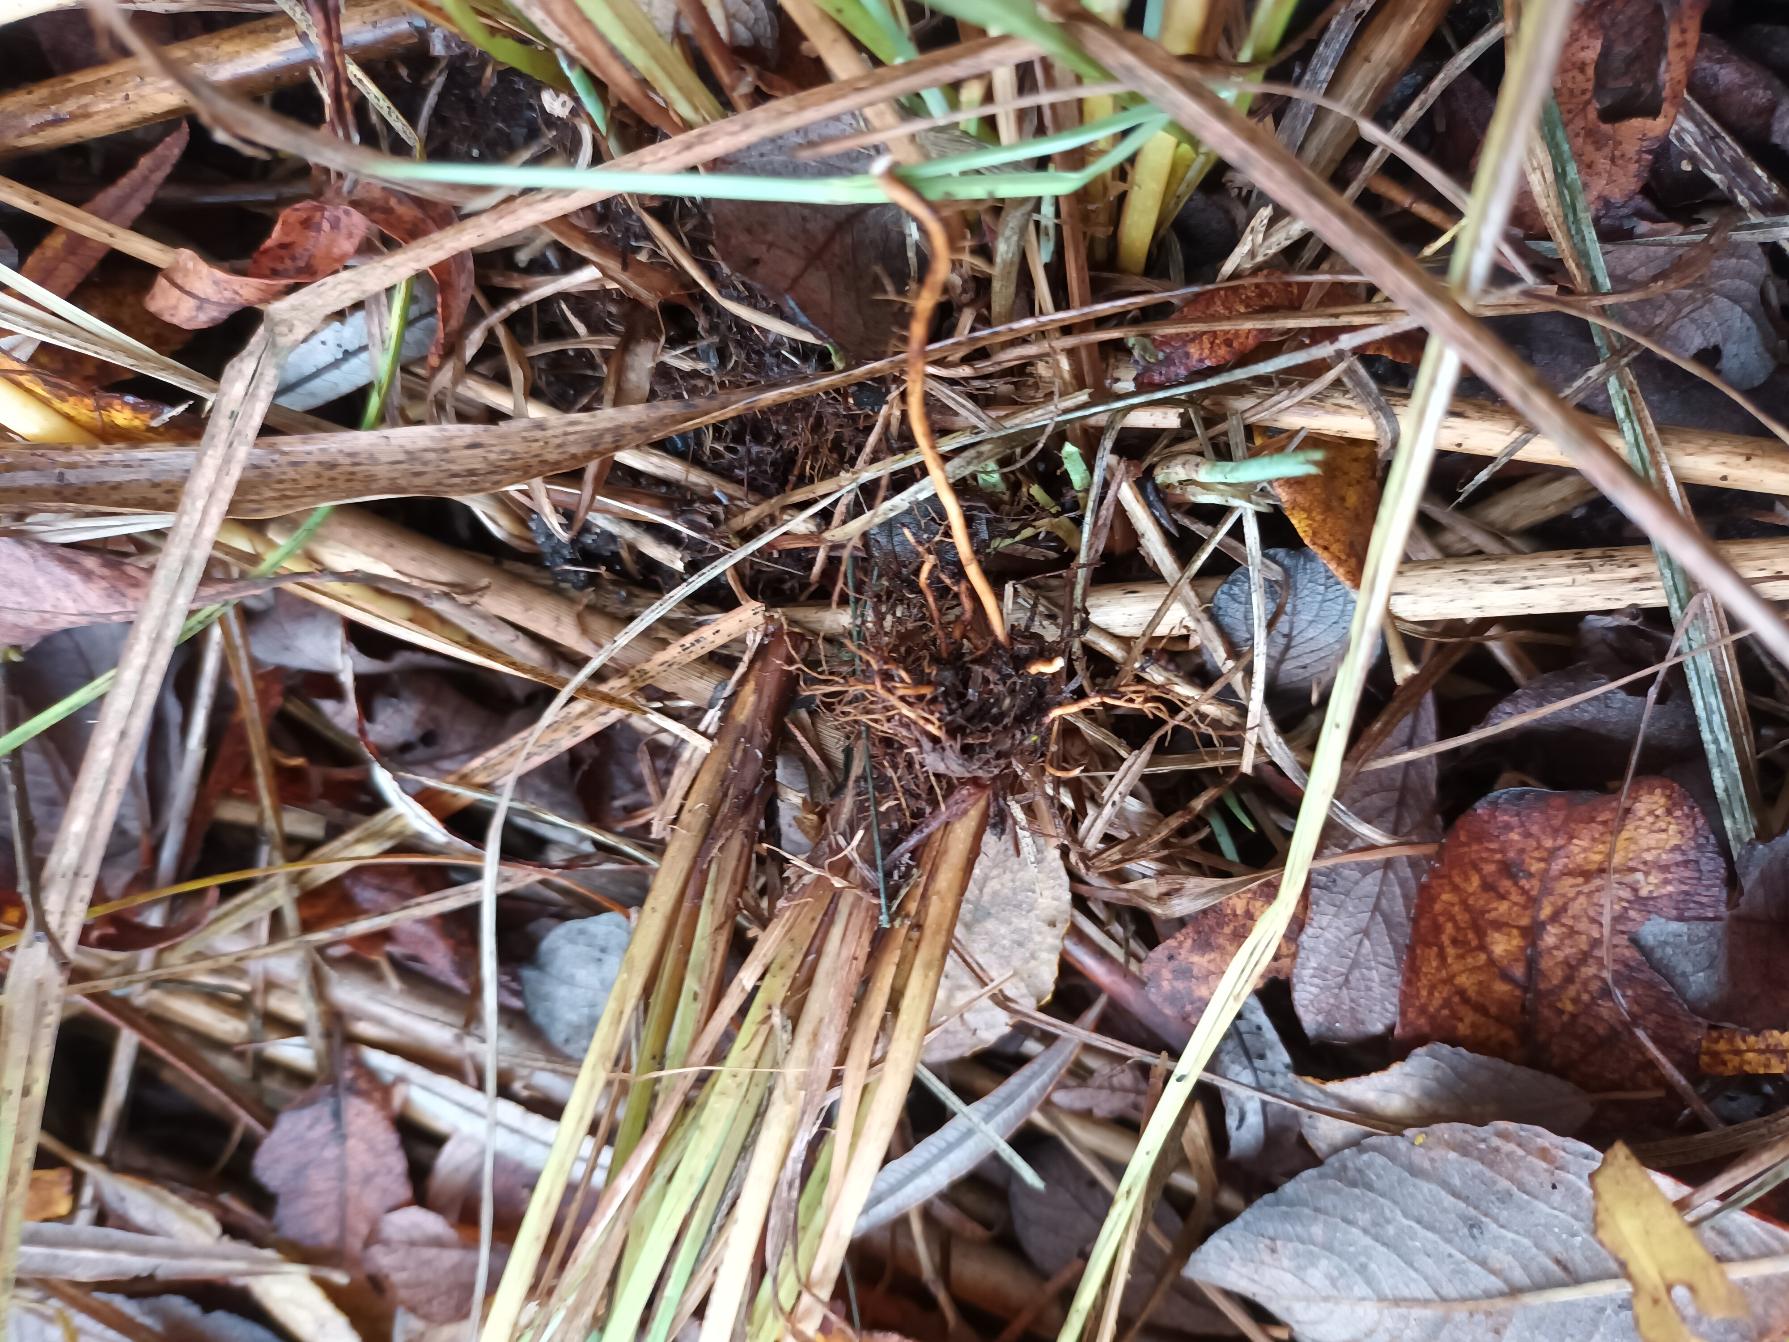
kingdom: Plantae
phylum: Tracheophyta
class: Liliopsida
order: Poales
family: Cyperaceae
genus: Carex
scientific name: Carex acutiformis
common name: Kær-star
